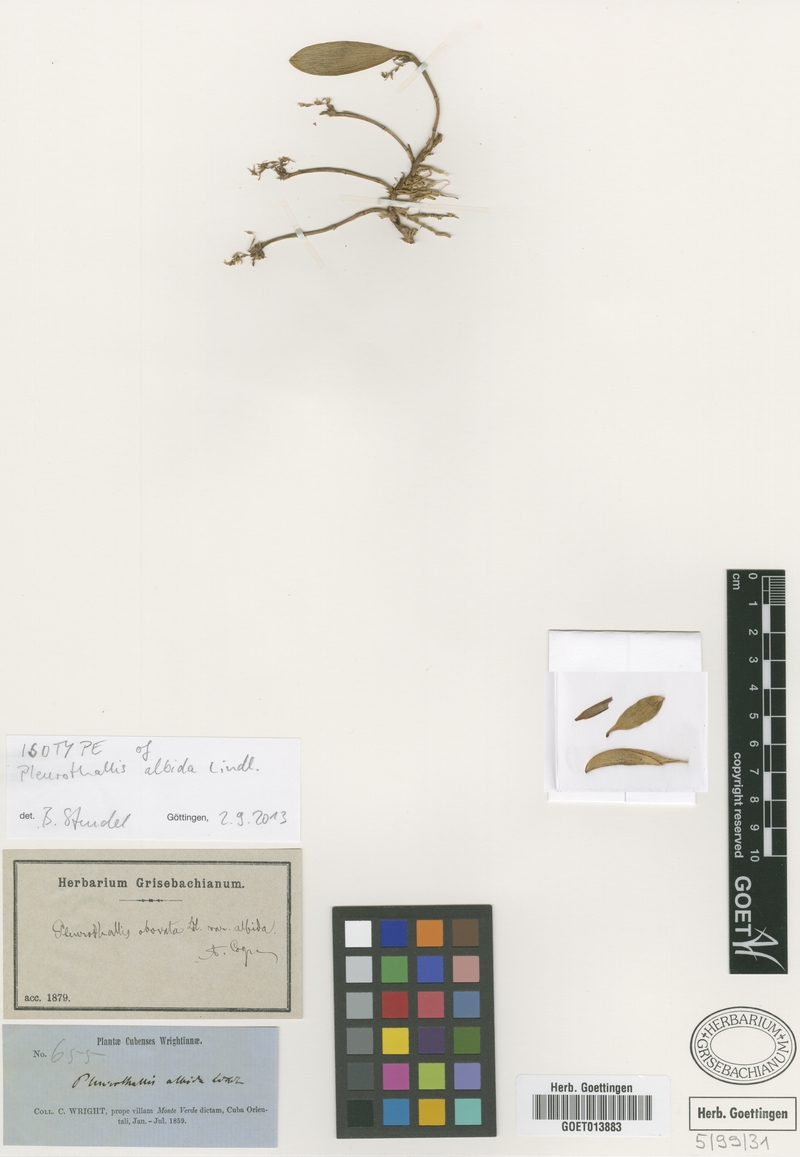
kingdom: Plantae
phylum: Tracheophyta
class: Liliopsida
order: Asparagales
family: Orchidaceae
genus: Anathallis
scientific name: Anathallis obovata
